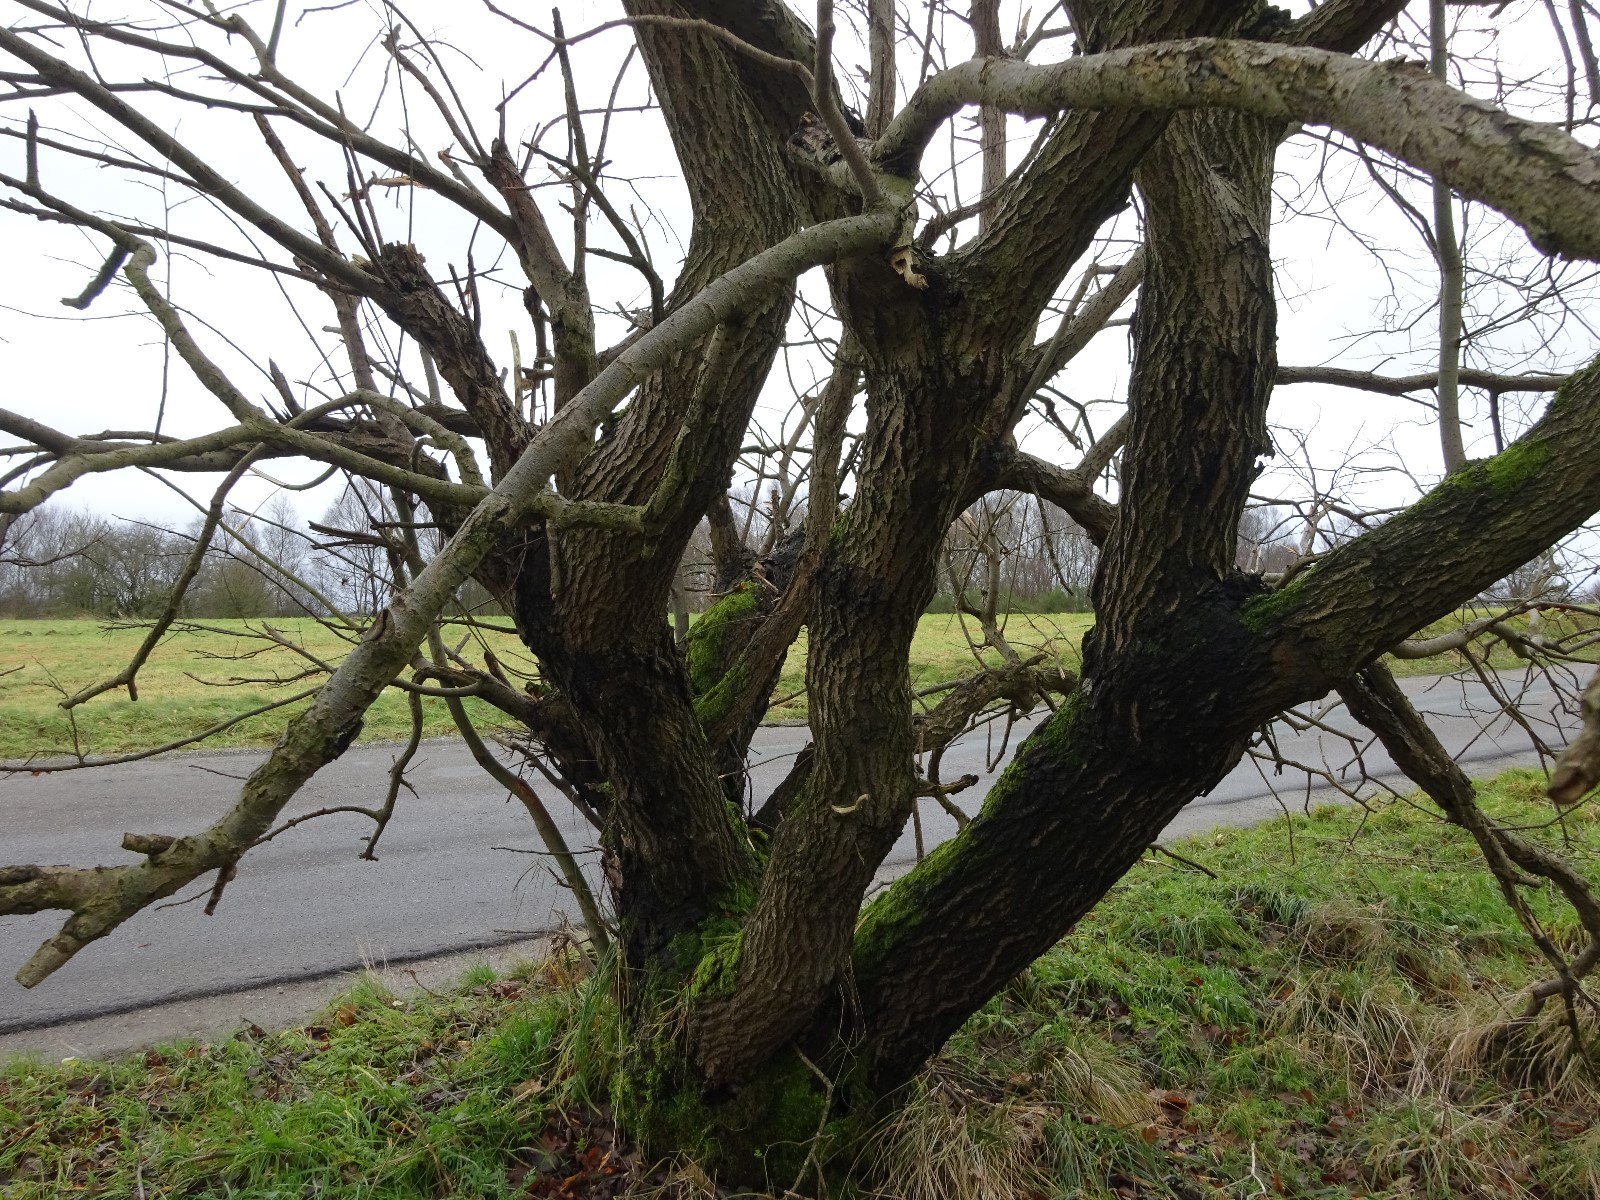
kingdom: Fungi
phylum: Ascomycota
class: Sordariomycetes
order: Xylariales
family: Xylariaceae
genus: Xylaria
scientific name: Xylaria hypoxylon
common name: grenet stødsvamp
